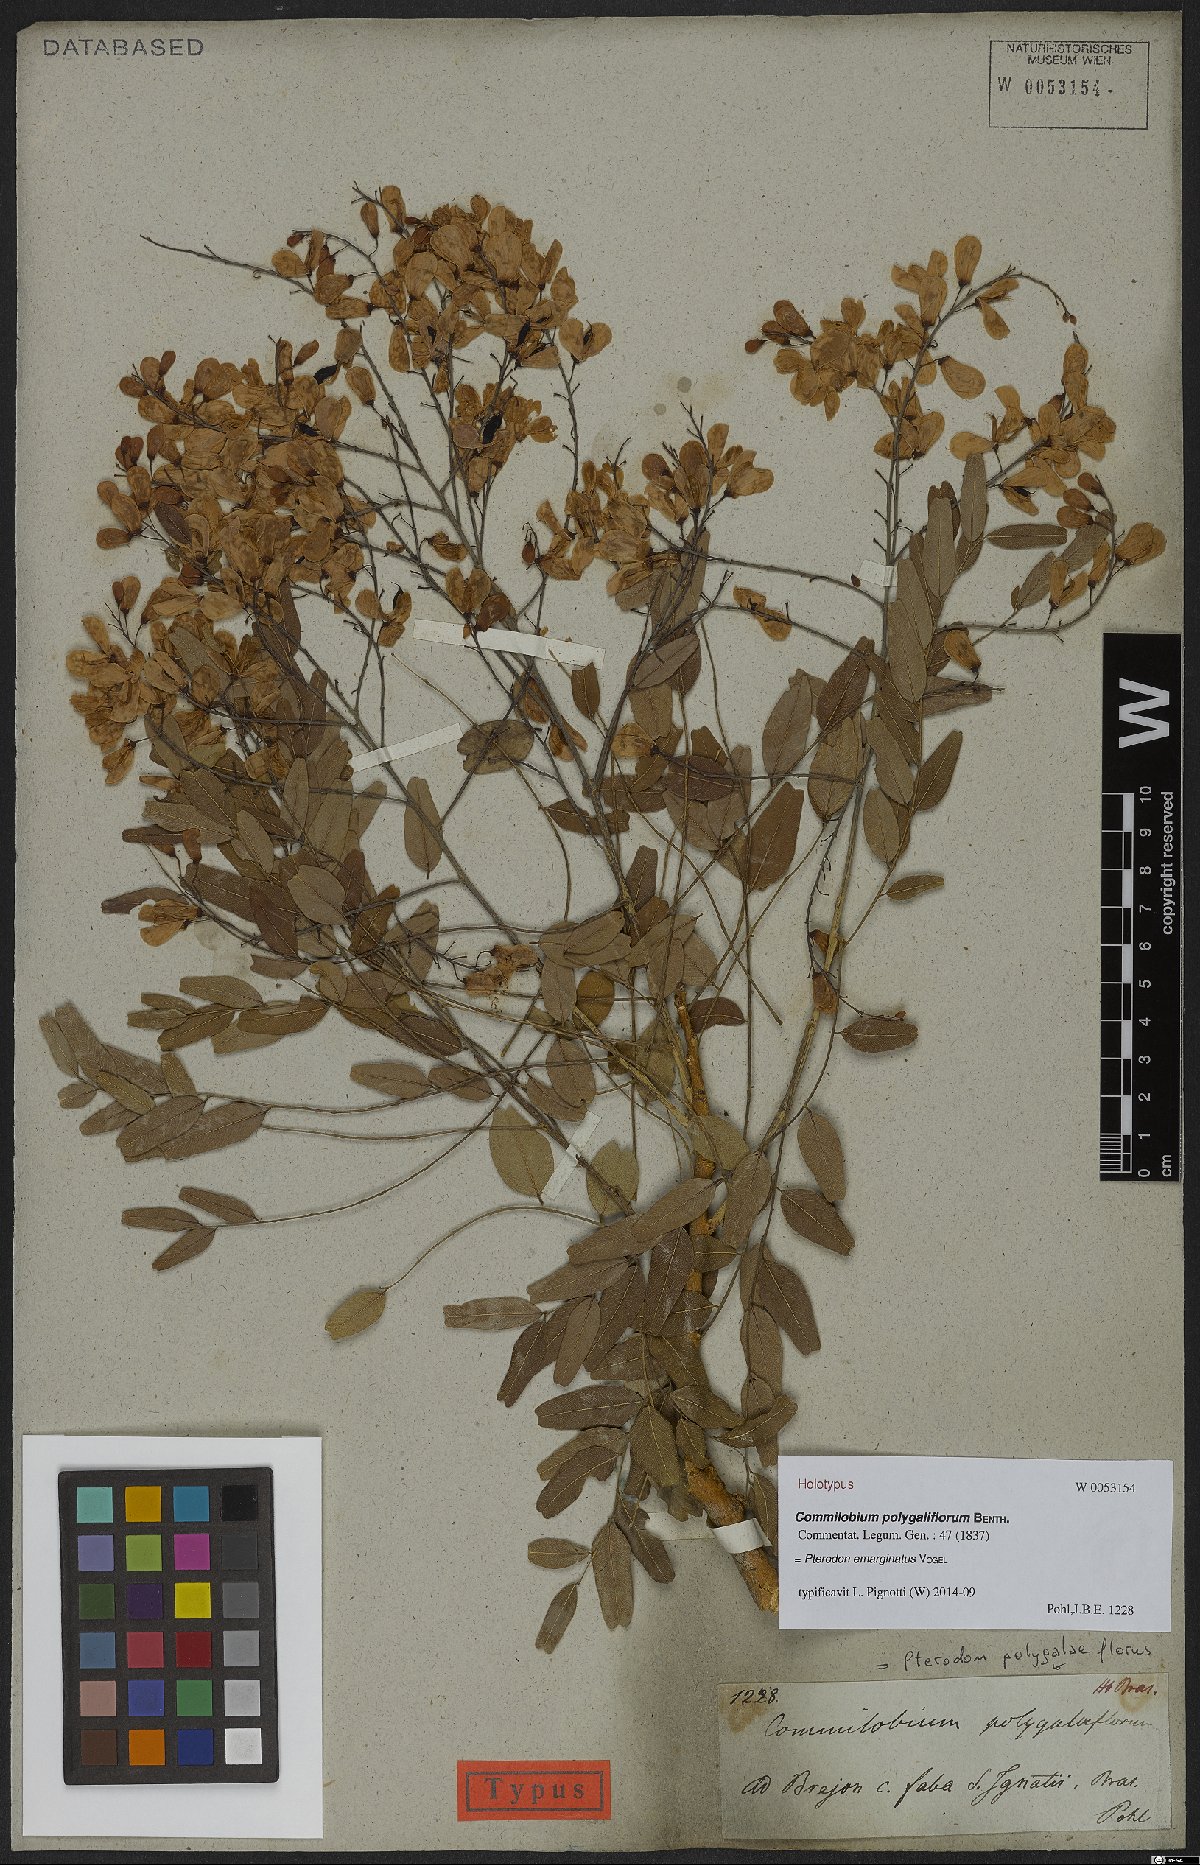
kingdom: Plantae
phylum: Tracheophyta
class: Magnoliopsida
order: Fabales
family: Fabaceae
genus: Pterodon
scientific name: Pterodon emarginatus
